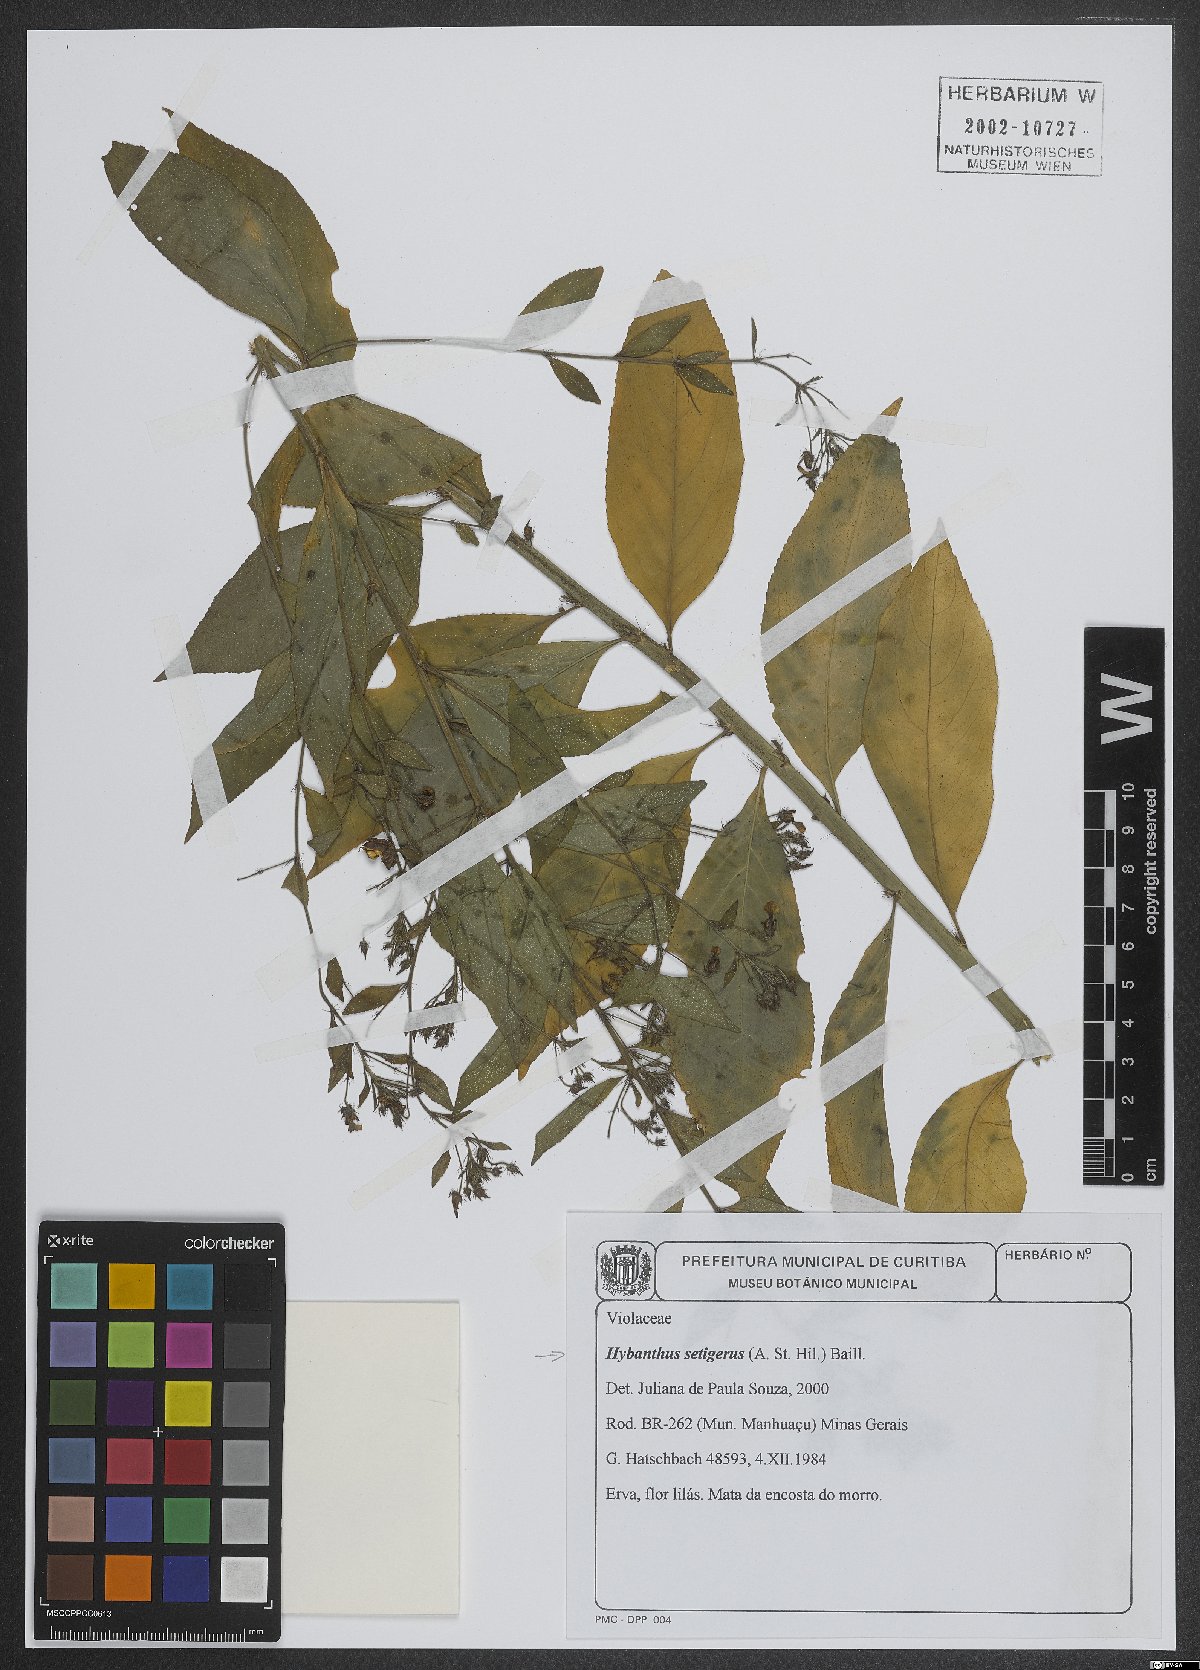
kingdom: Plantae
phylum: Tracheophyta
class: Magnoliopsida
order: Malpighiales
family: Violaceae
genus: Pombalia
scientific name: Pombalia setigera
